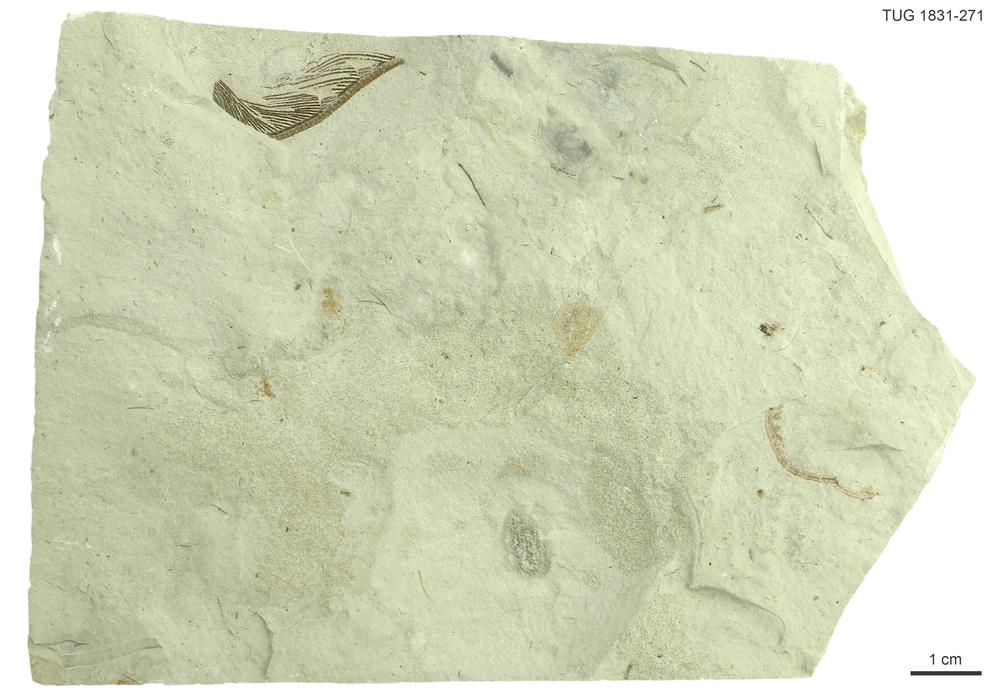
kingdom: Animalia
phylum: Echinodermata
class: Crinoidea
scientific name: Crinoidea
